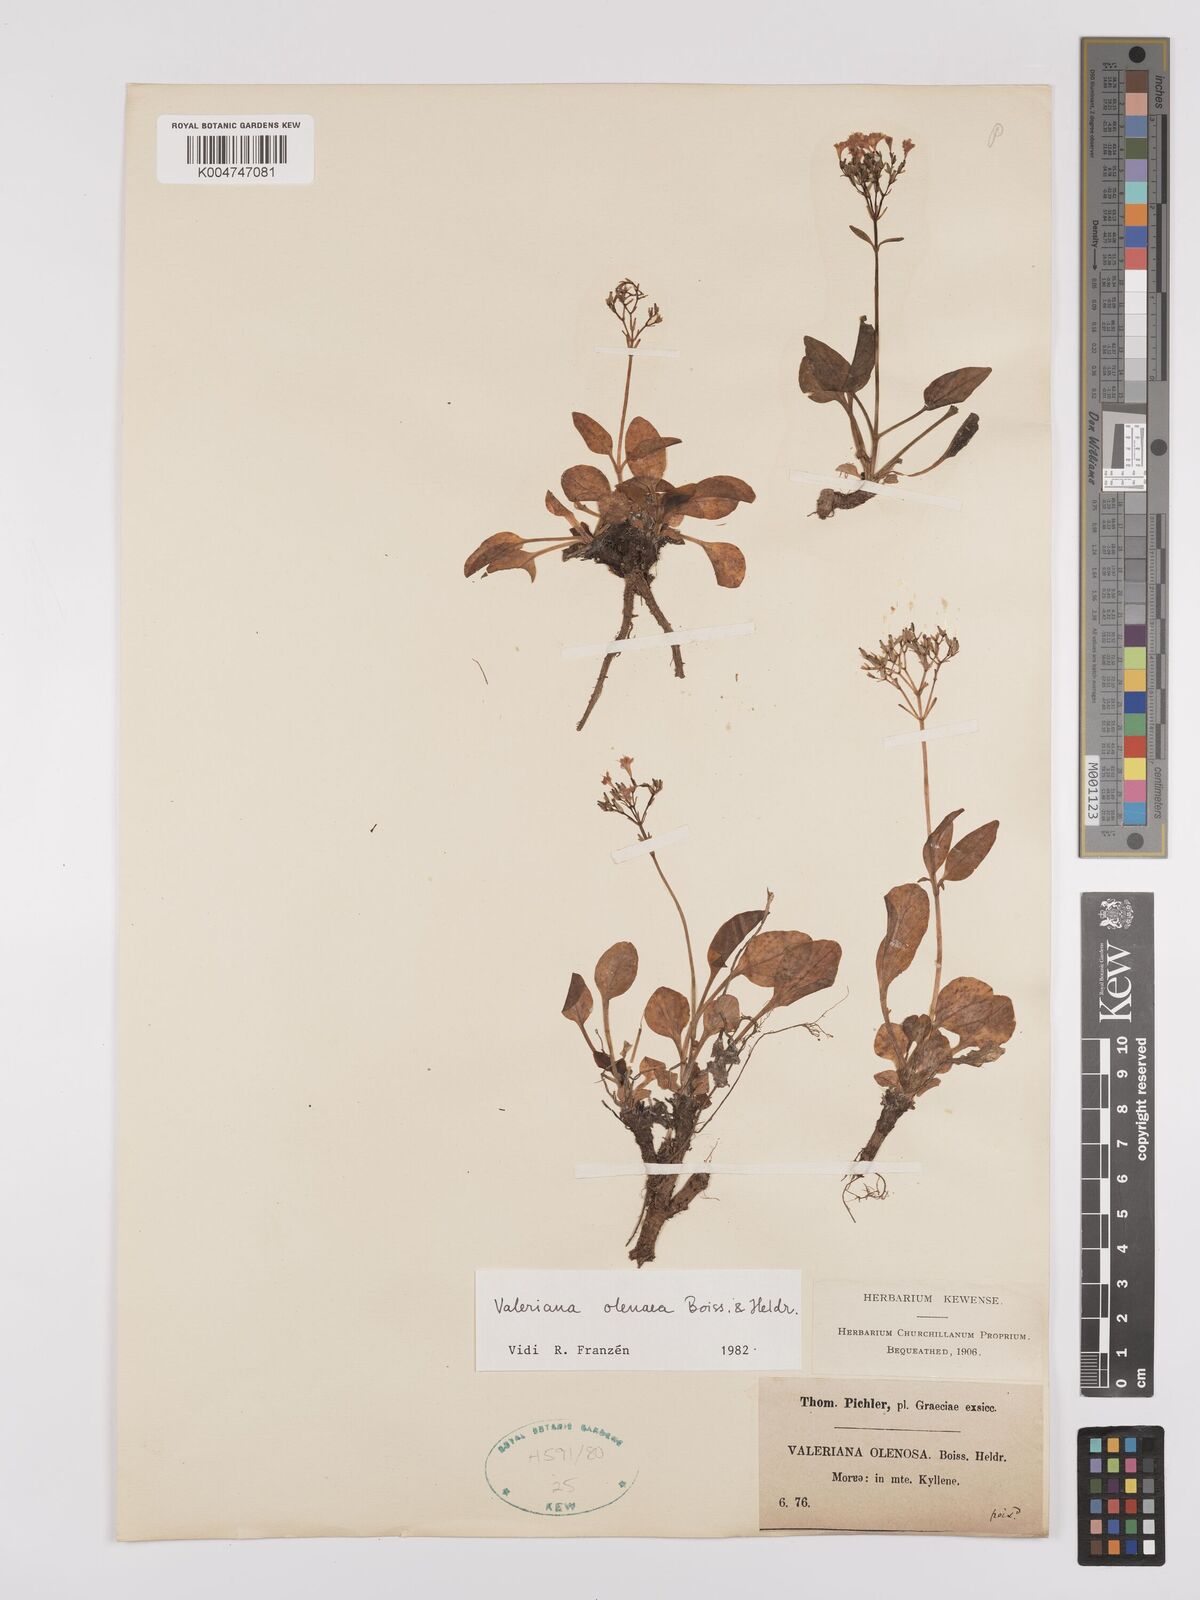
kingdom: Plantae
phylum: Tracheophyta
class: Magnoliopsida
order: Dipsacales
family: Caprifoliaceae
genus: Valeriana
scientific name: Valeriana olenaea
